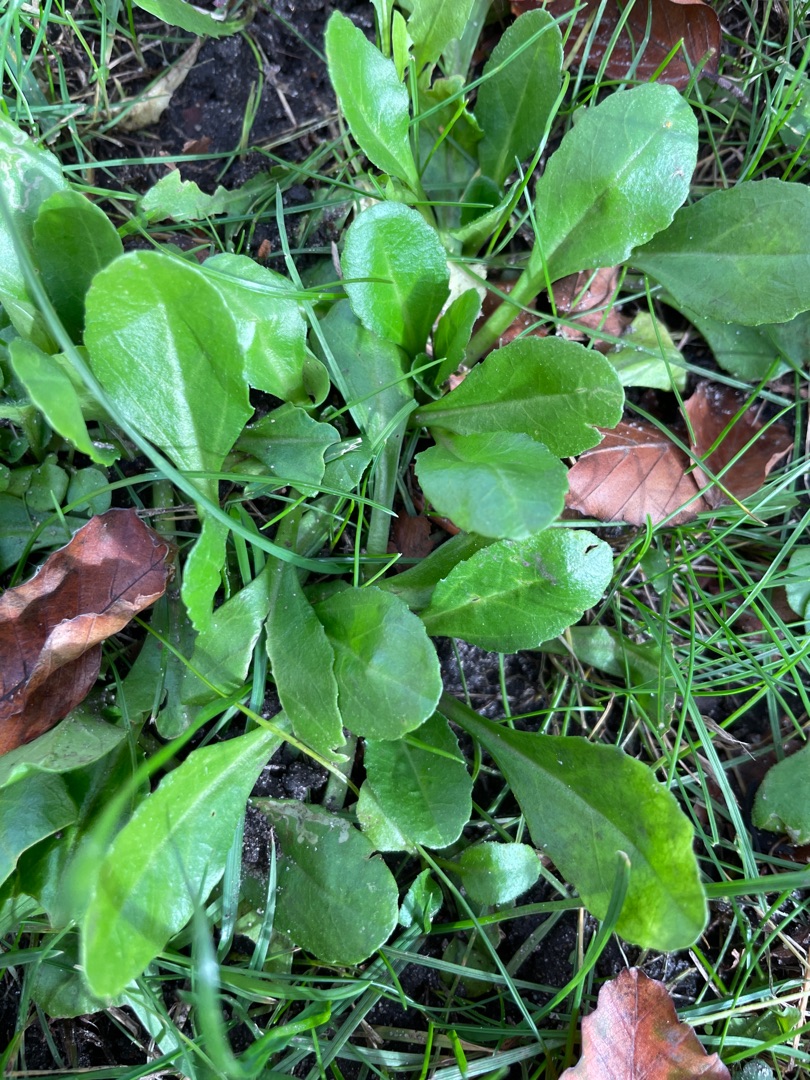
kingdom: Plantae
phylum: Tracheophyta
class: Magnoliopsida
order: Asterales
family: Asteraceae
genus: Bellis
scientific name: Bellis perennis
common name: Tusindfryd
